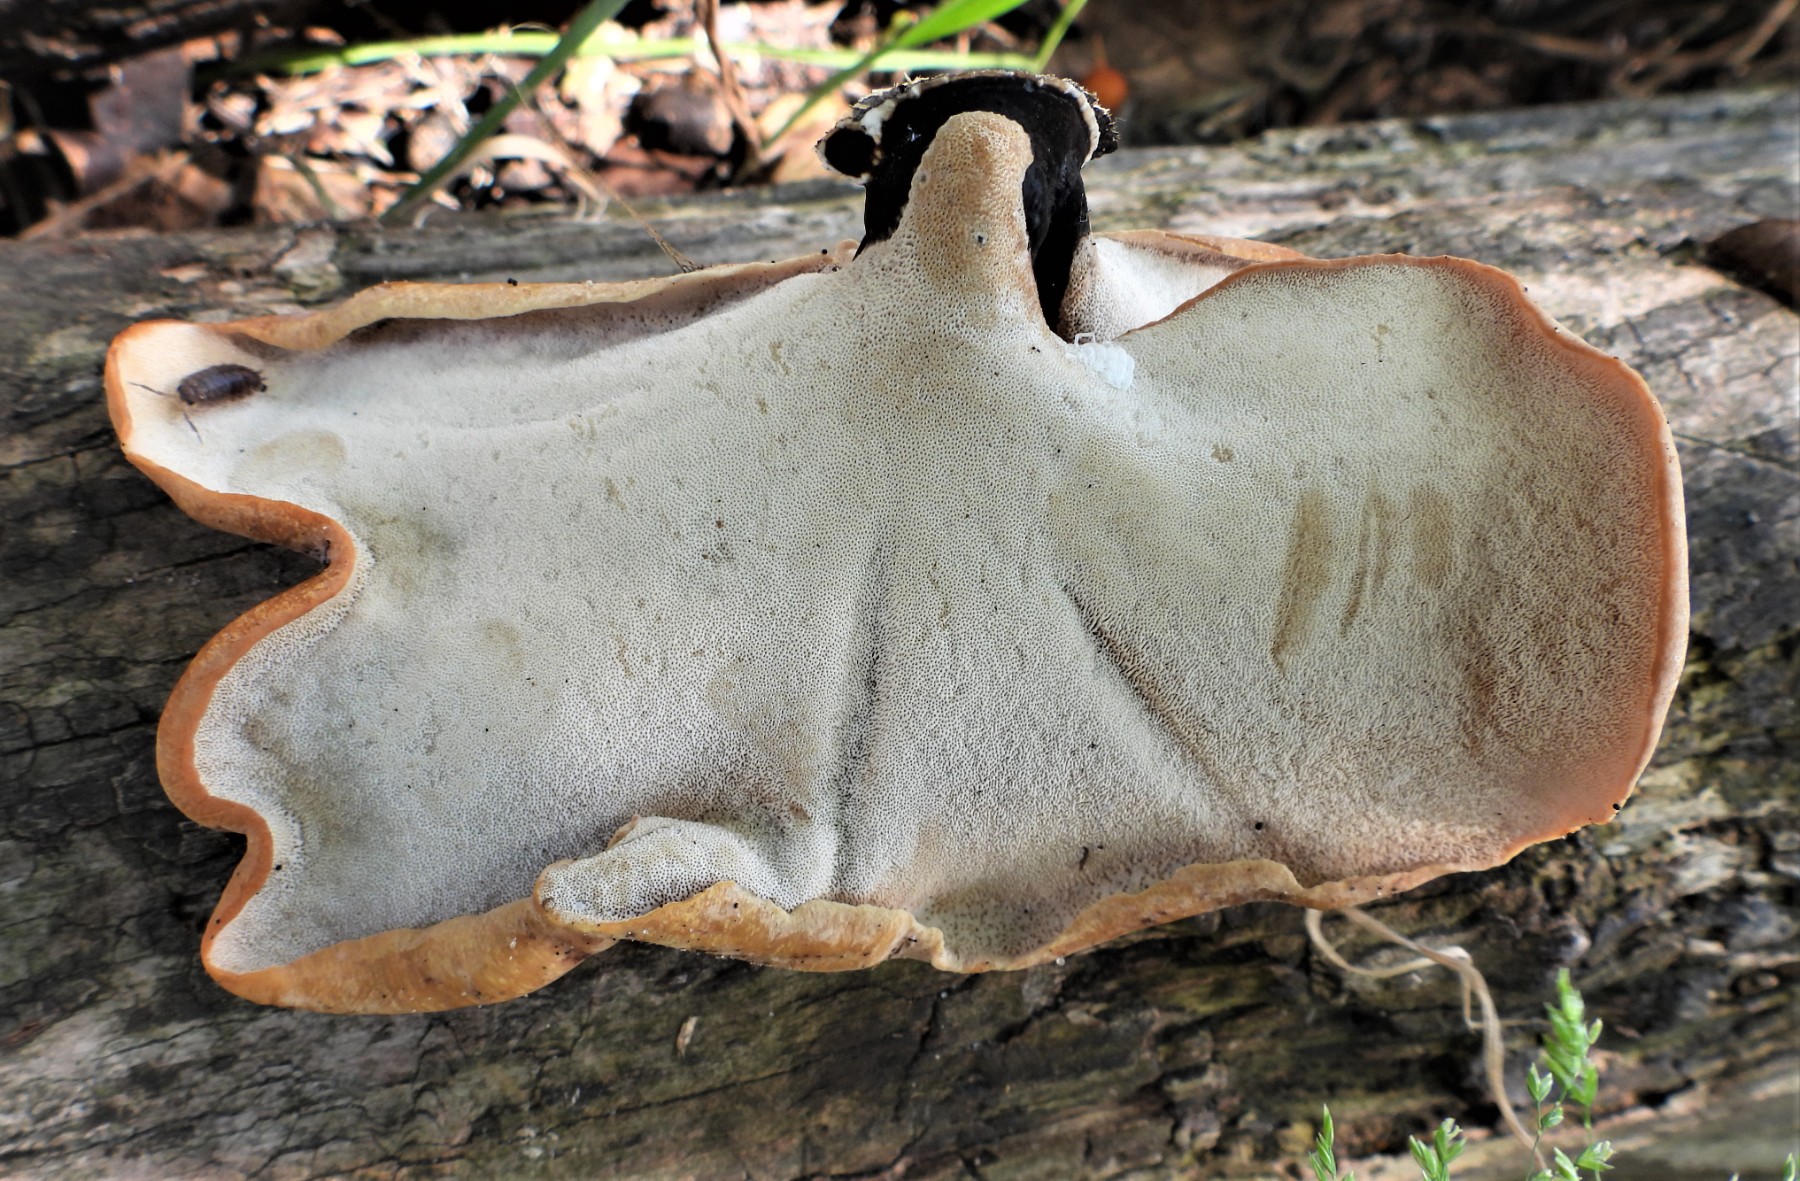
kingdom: Fungi
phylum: Basidiomycota
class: Agaricomycetes
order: Polyporales
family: Polyporaceae
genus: Cerioporus
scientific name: Cerioporus varius
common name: foranderlig stilkporesvamp
